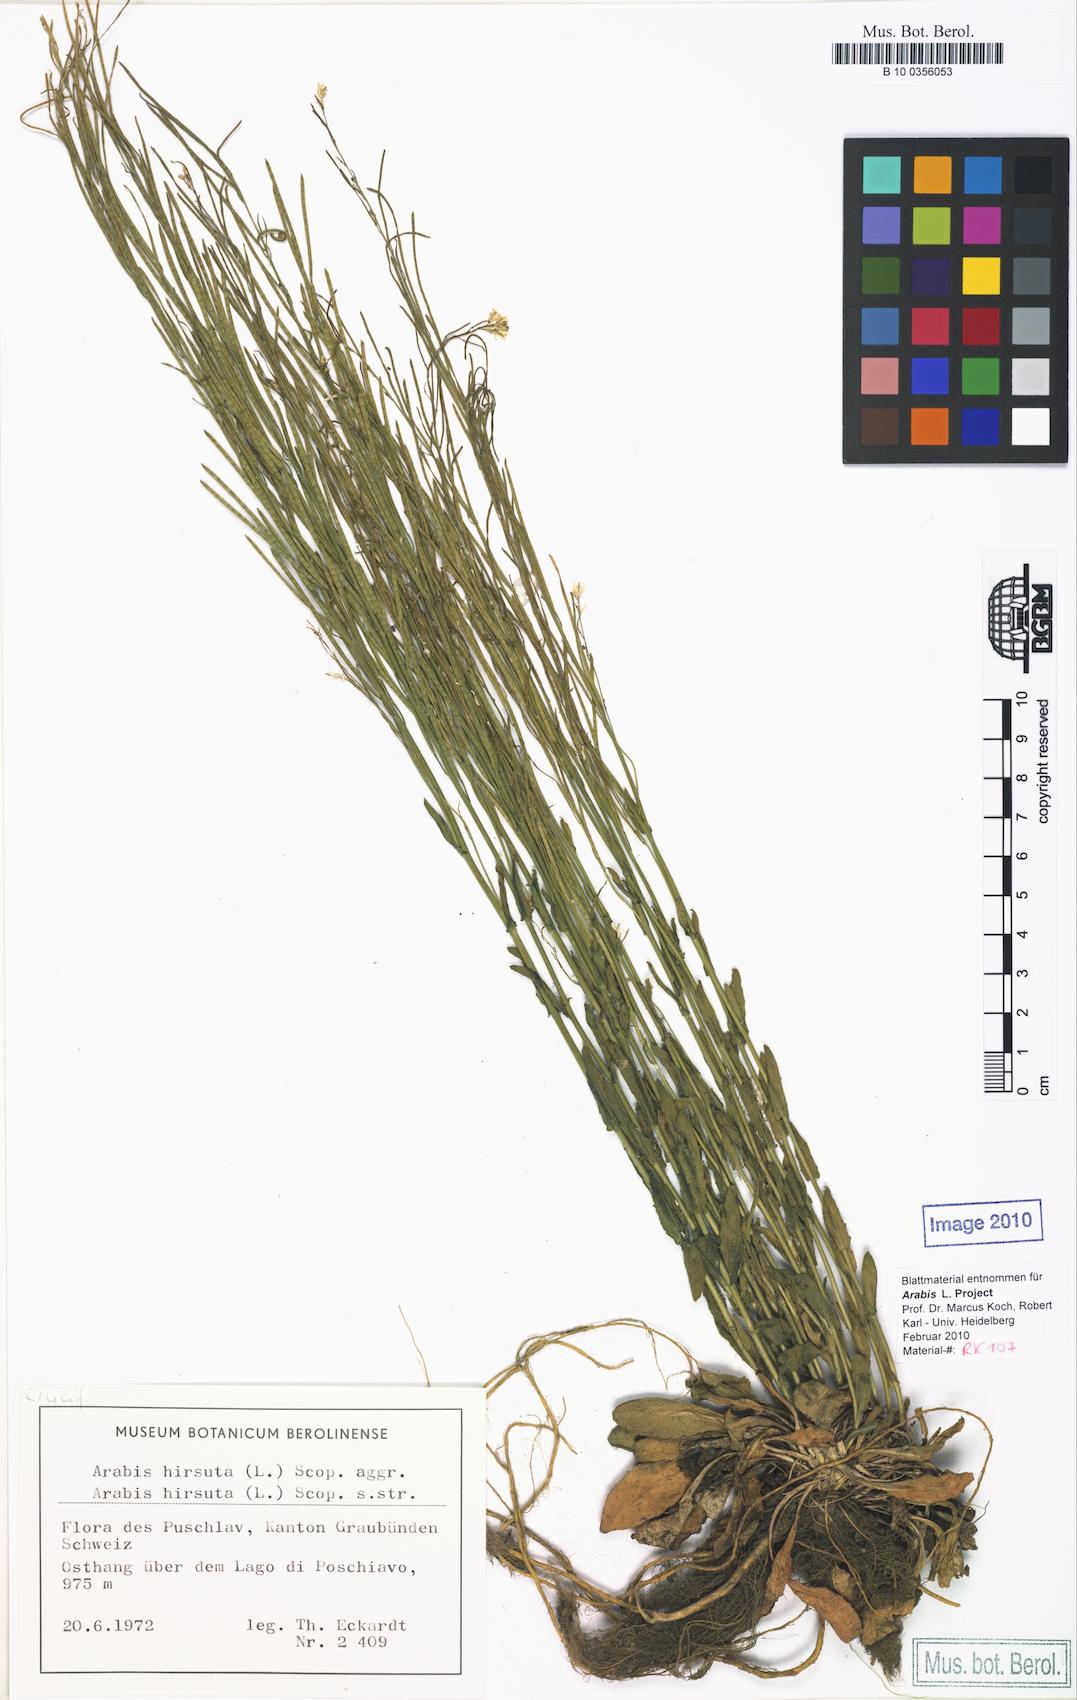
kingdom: Plantae
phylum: Tracheophyta
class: Magnoliopsida
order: Brassicales
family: Brassicaceae
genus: Arabis
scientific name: Arabis hirsuta
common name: Hairy rock-cress
